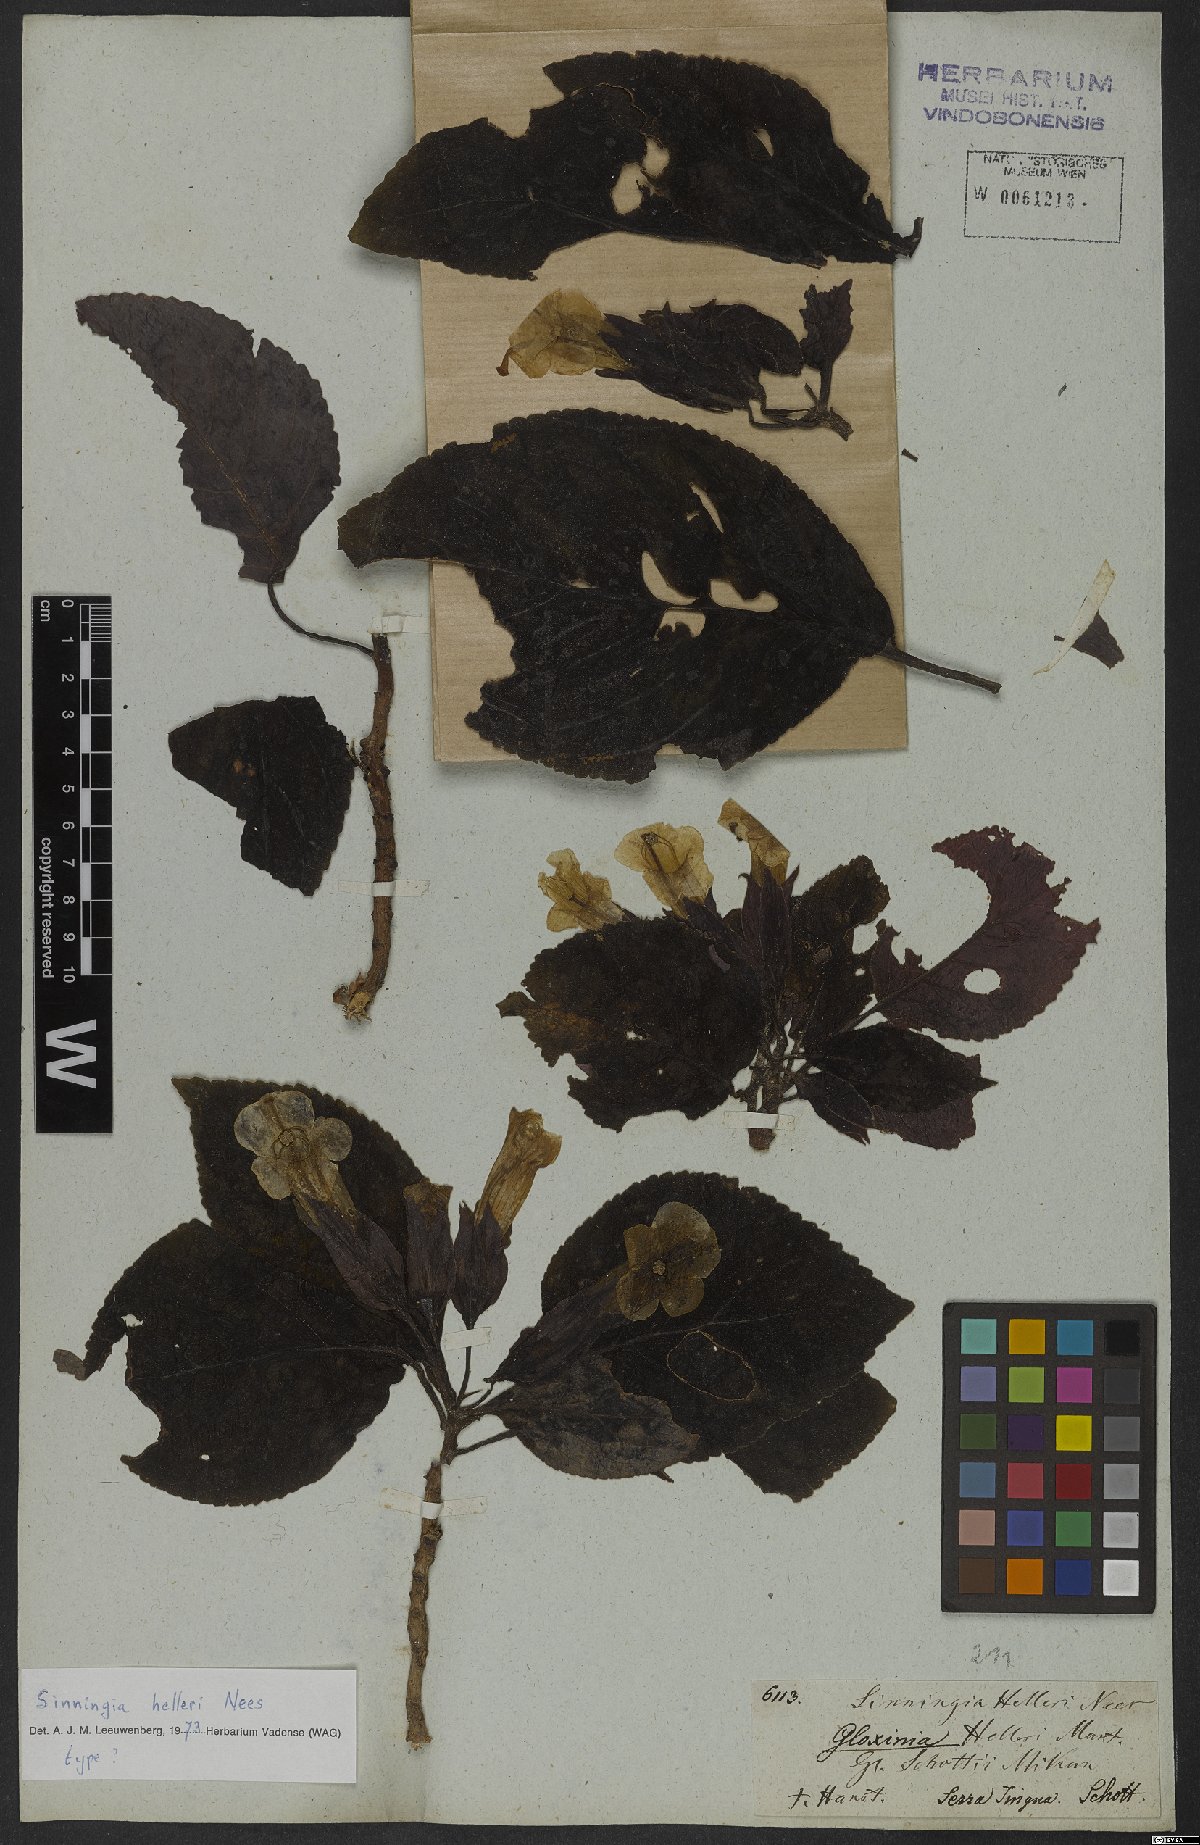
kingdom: Plantae
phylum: Tracheophyta
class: Magnoliopsida
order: Lamiales
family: Gesneriaceae
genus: Sinningia
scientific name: Sinningia helleri
